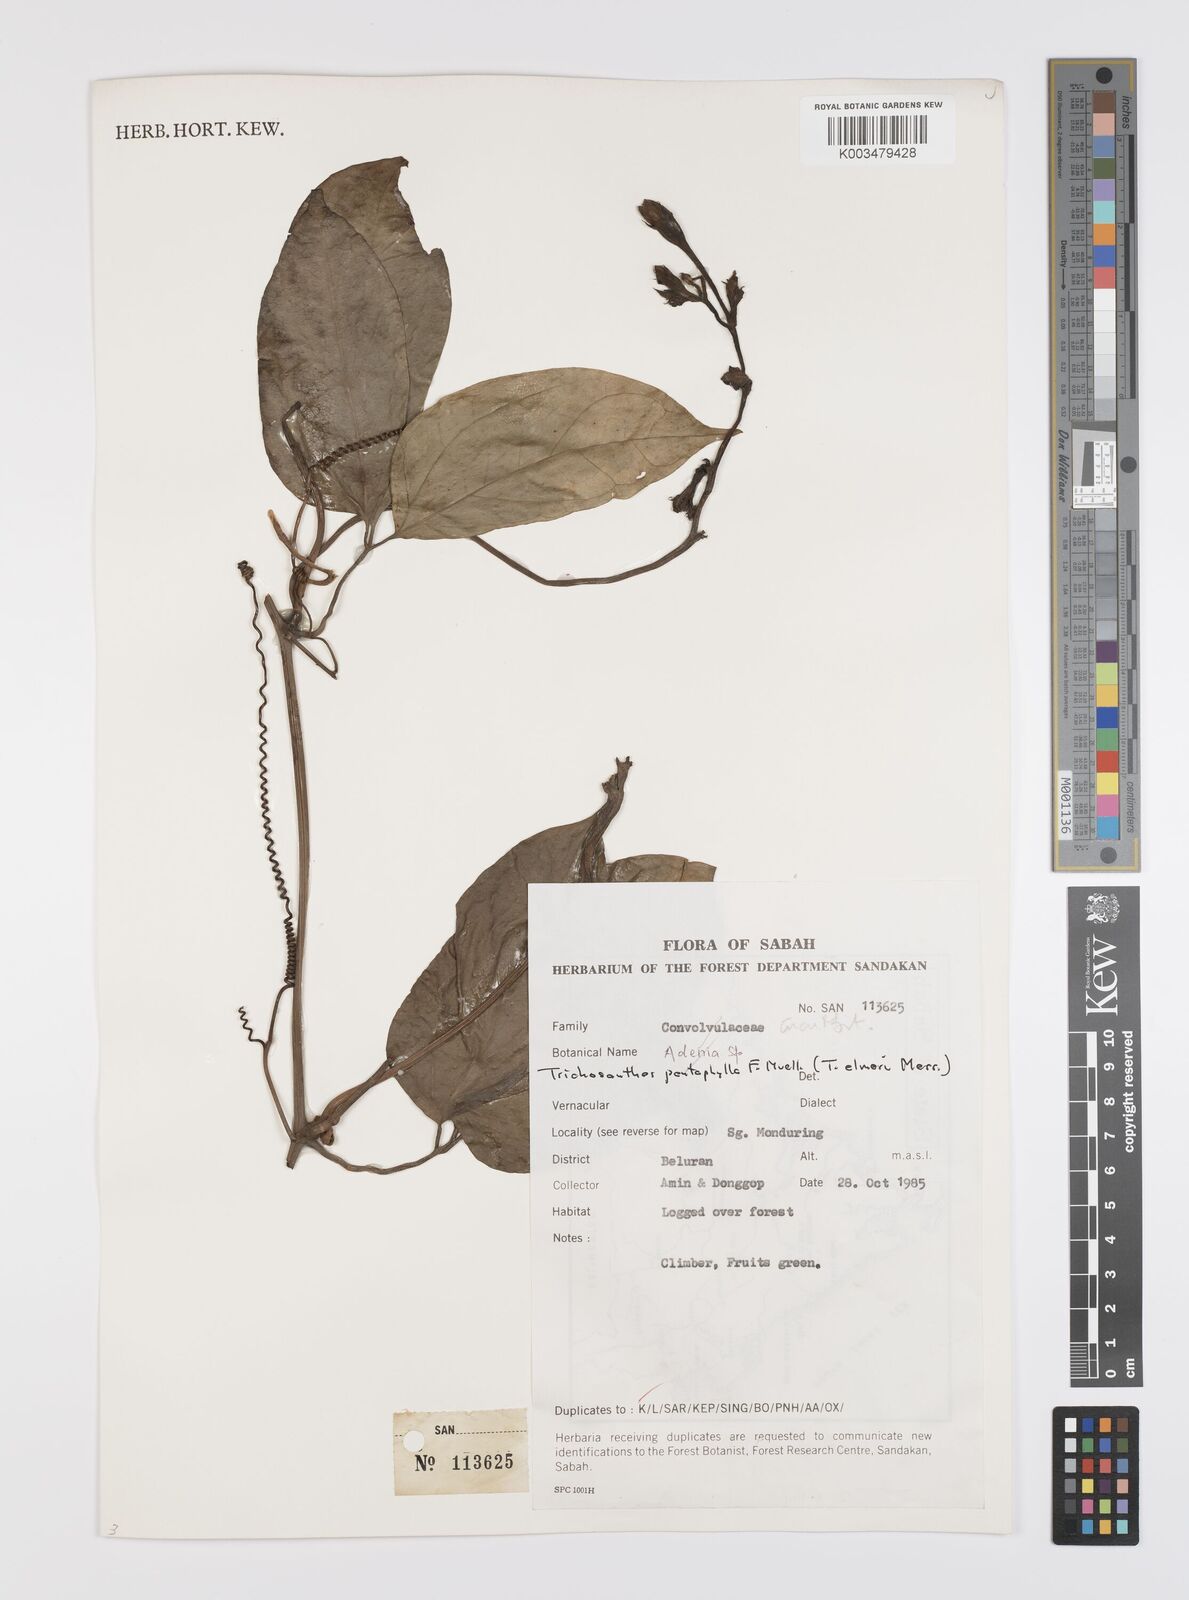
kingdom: Plantae
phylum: Tracheophyta
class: Magnoliopsida
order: Cucurbitales
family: Cucurbitaceae
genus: Trichosanthes
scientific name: Trichosanthes pentaphylla
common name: Red gourd
